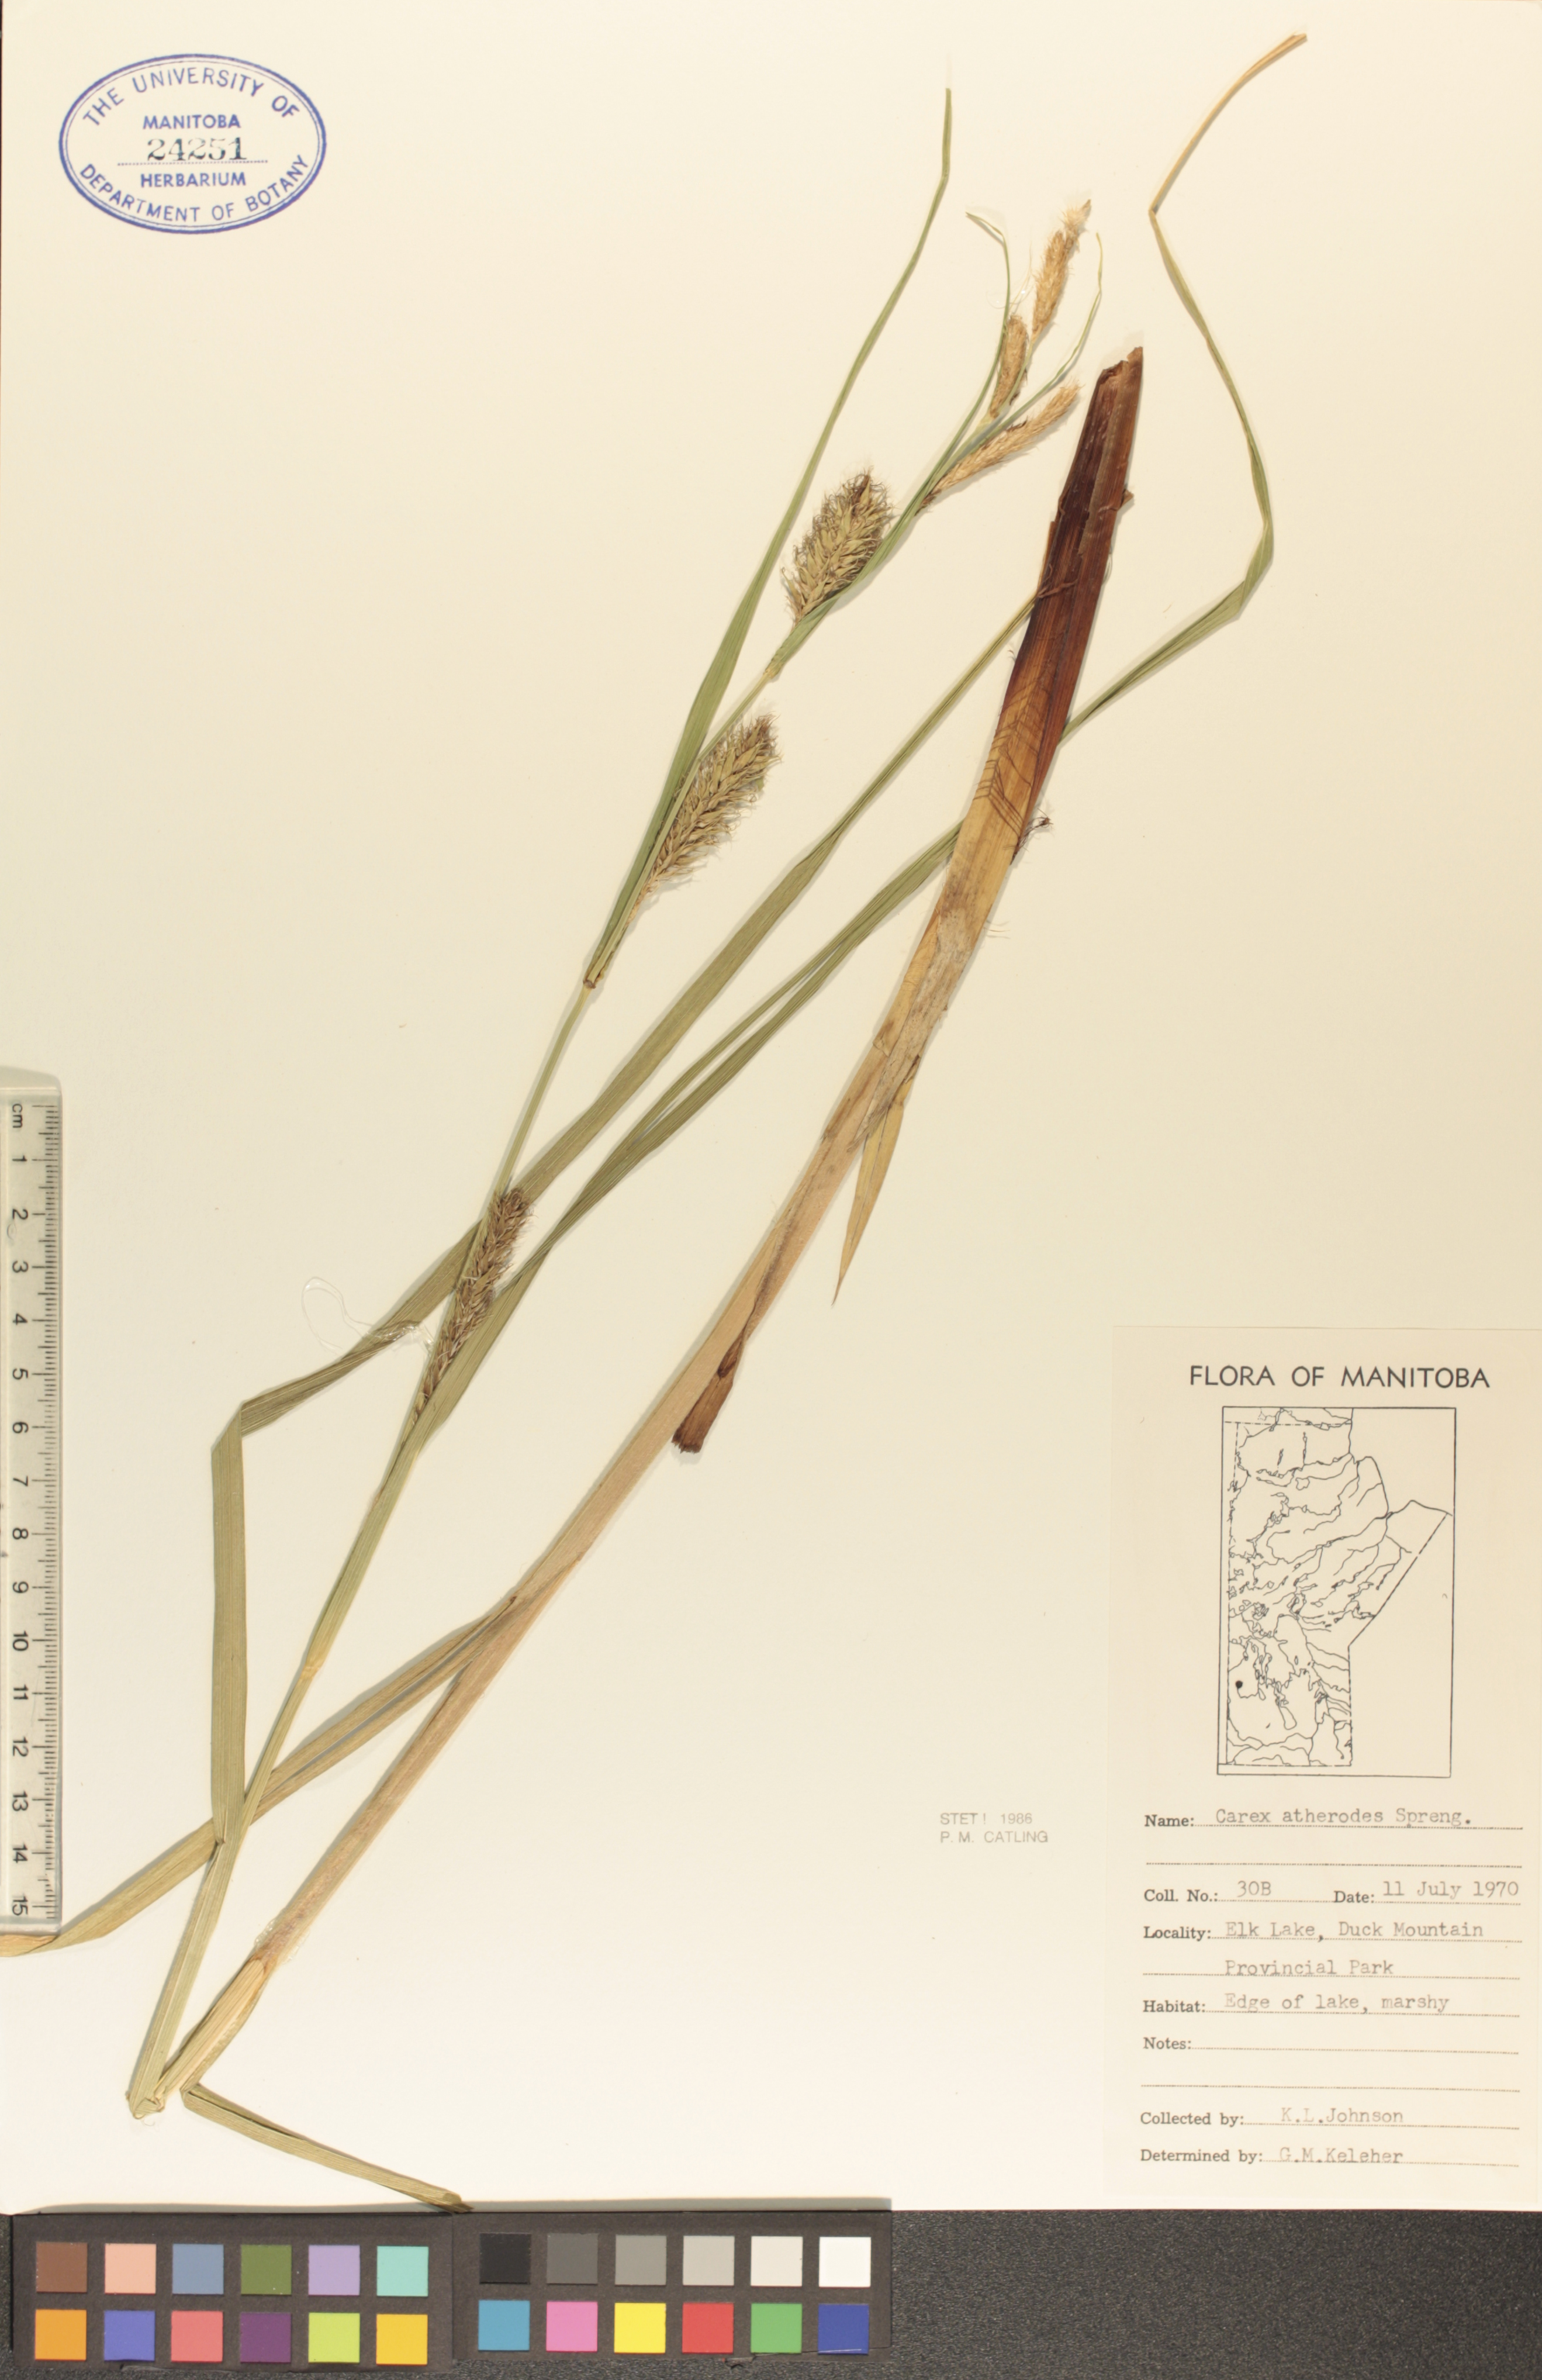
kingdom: Plantae
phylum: Tracheophyta
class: Liliopsida
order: Poales
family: Cyperaceae
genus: Carex
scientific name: Carex atherodes
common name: Wheat sedge
